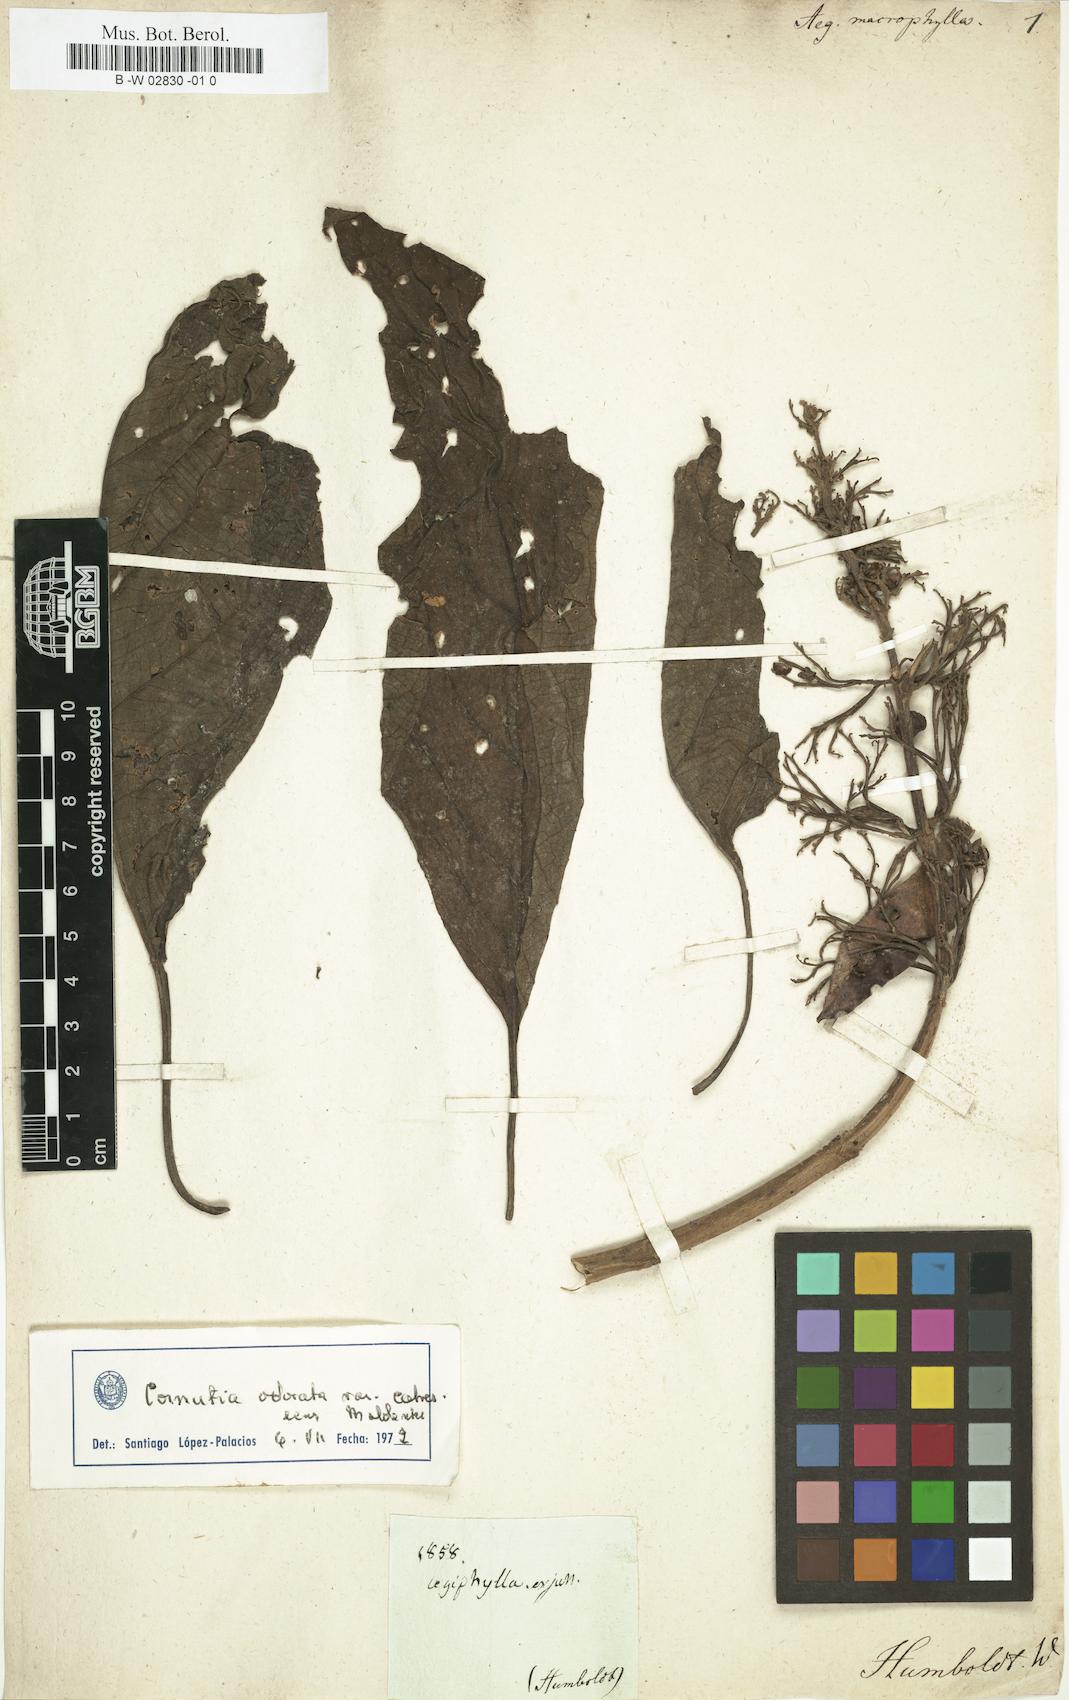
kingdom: Plantae
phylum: Tracheophyta
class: Magnoliopsida
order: Lamiales
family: Lamiaceae
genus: Aegiphila
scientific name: Aegiphila elata
